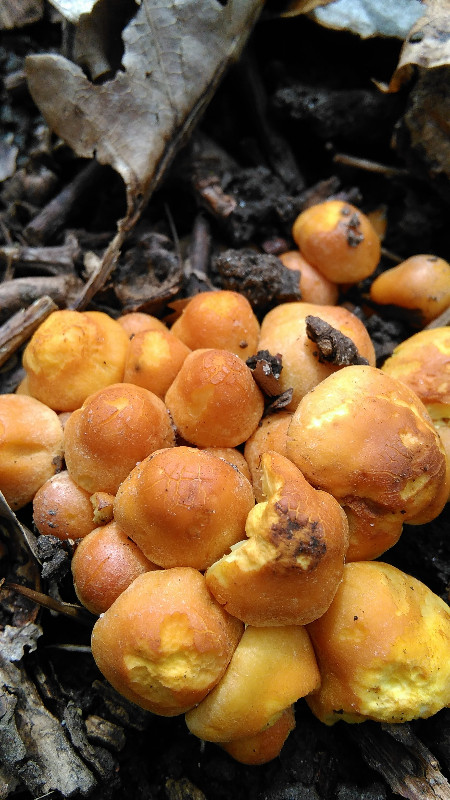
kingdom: Fungi
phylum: Basidiomycota
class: Agaricomycetes
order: Agaricales
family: Strophariaceae
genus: Hypholoma
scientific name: Hypholoma fasciculare
